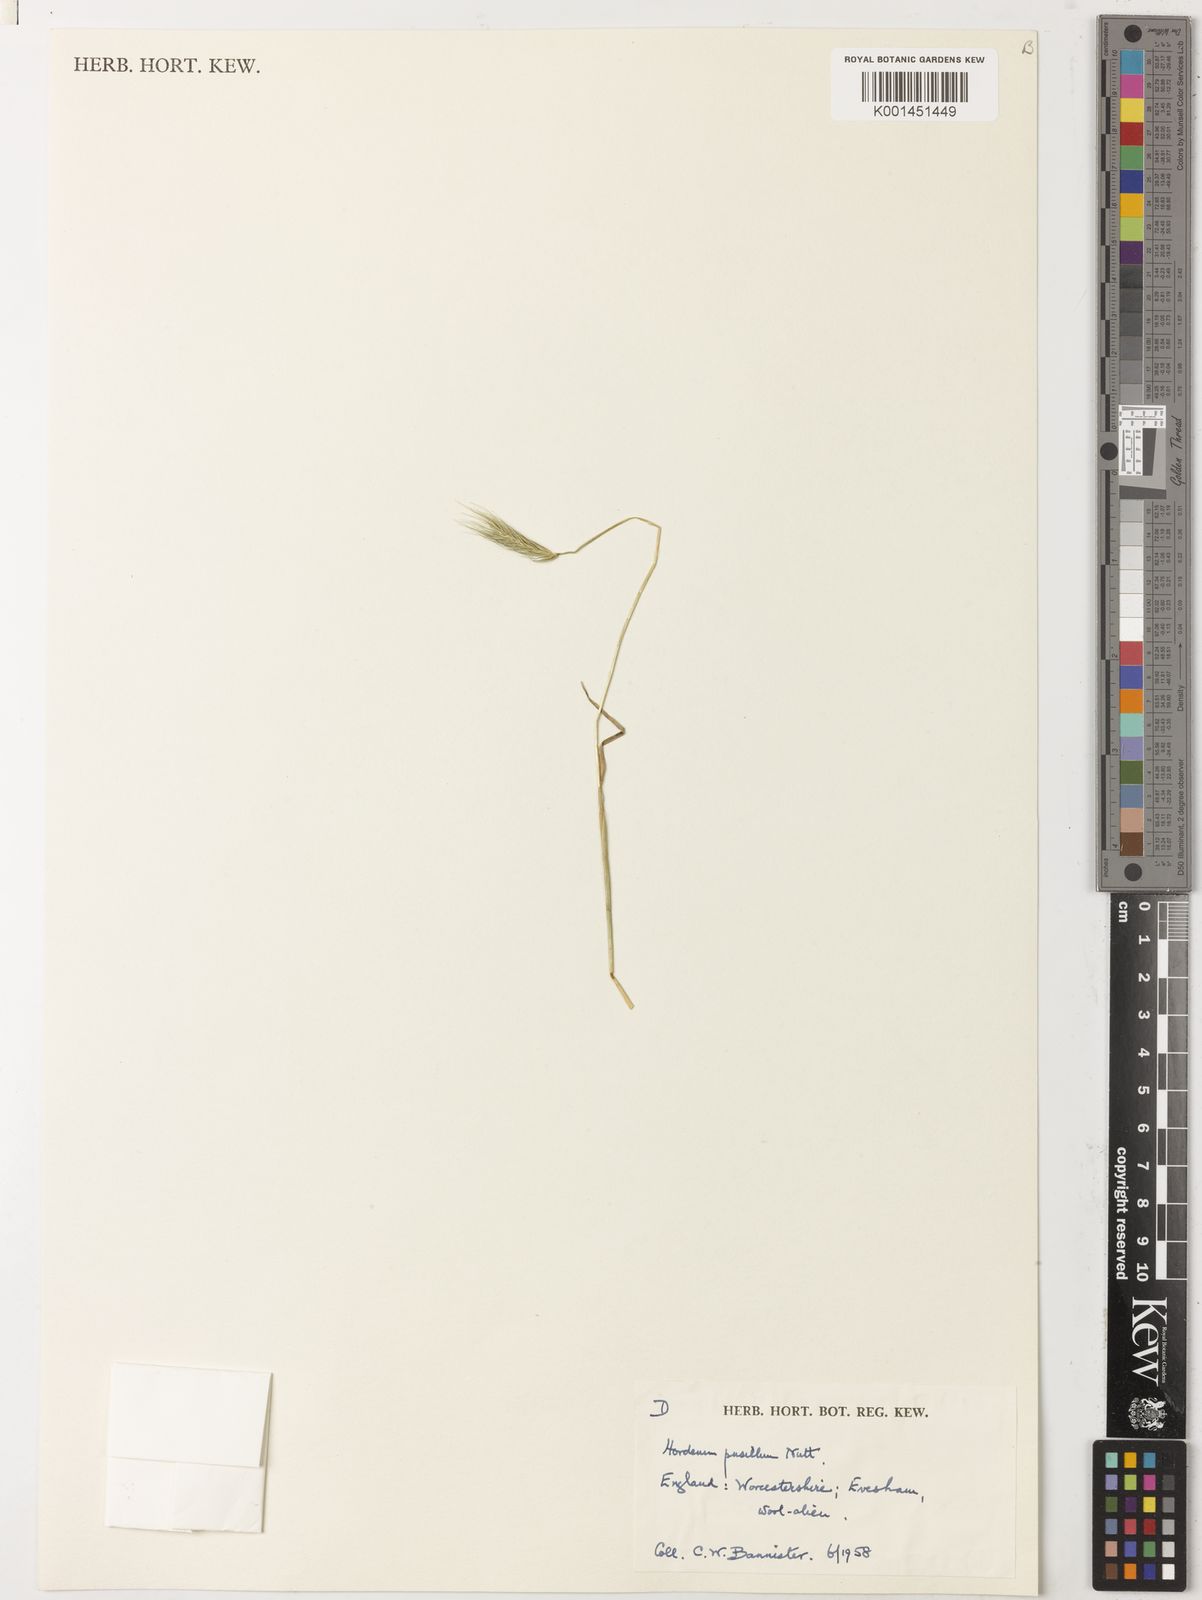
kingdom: Plantae
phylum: Tracheophyta
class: Liliopsida
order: Poales
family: Poaceae
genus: Hordeum
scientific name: Hordeum pusillum
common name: Little barley
